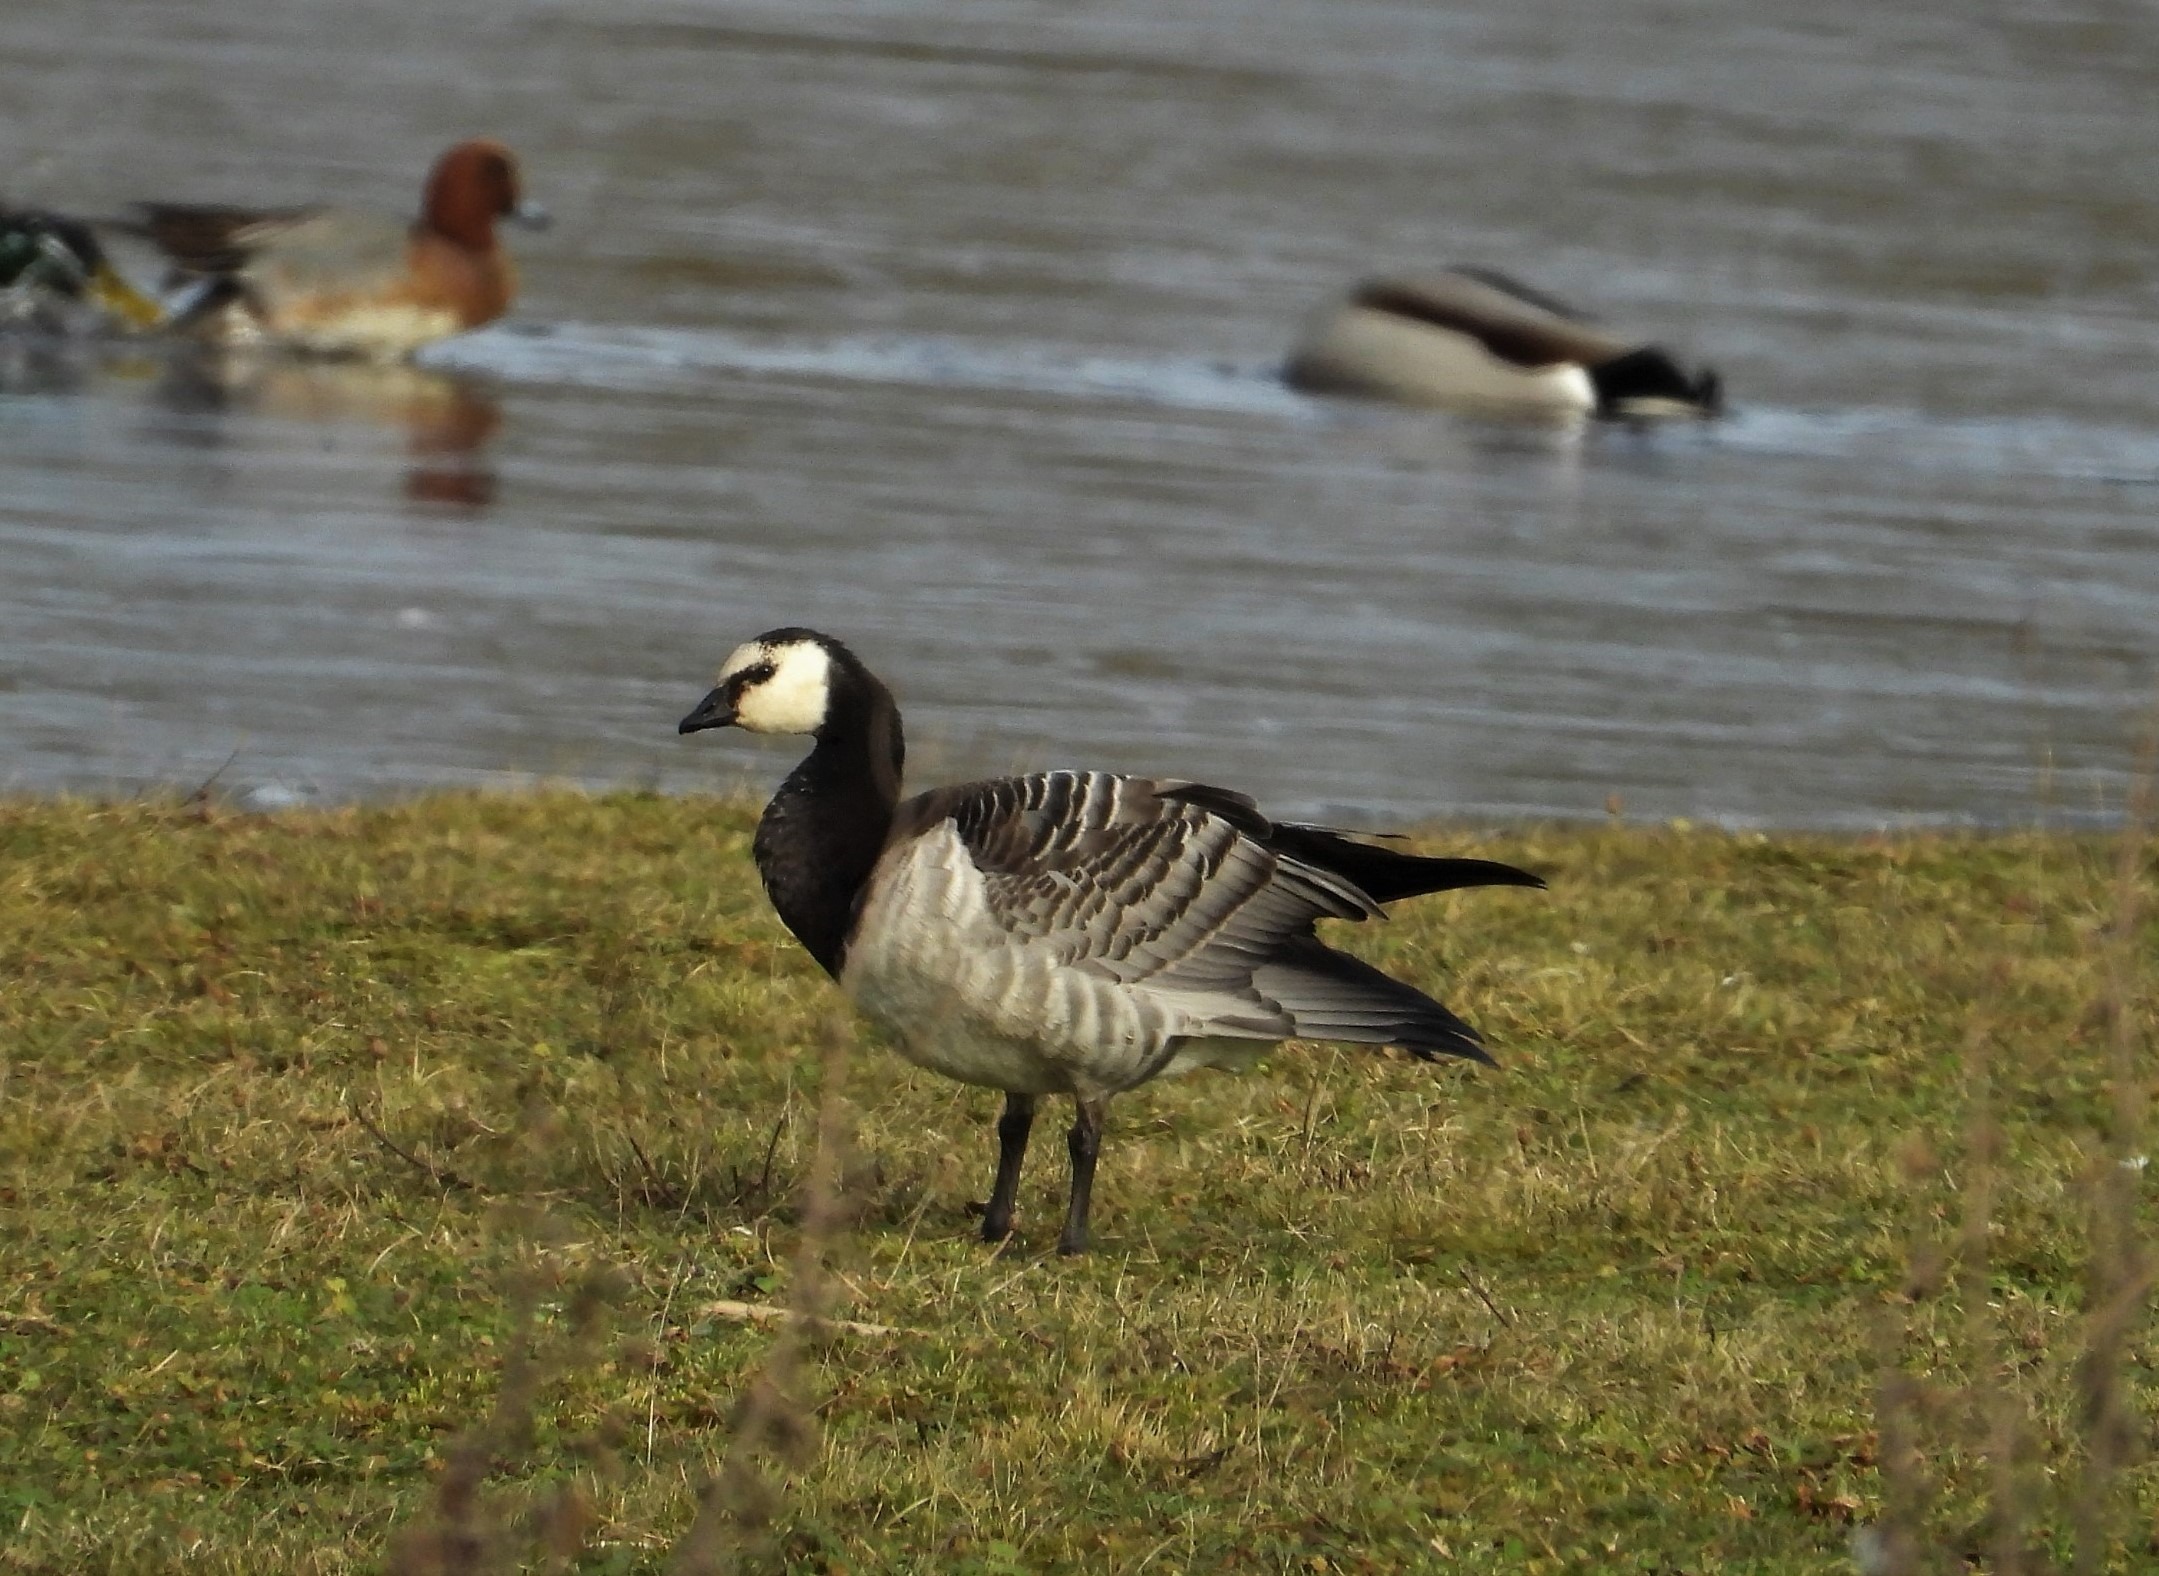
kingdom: Animalia
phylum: Chordata
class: Aves
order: Anseriformes
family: Anatidae
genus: Branta
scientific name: Branta leucopsis
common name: Bramgås
